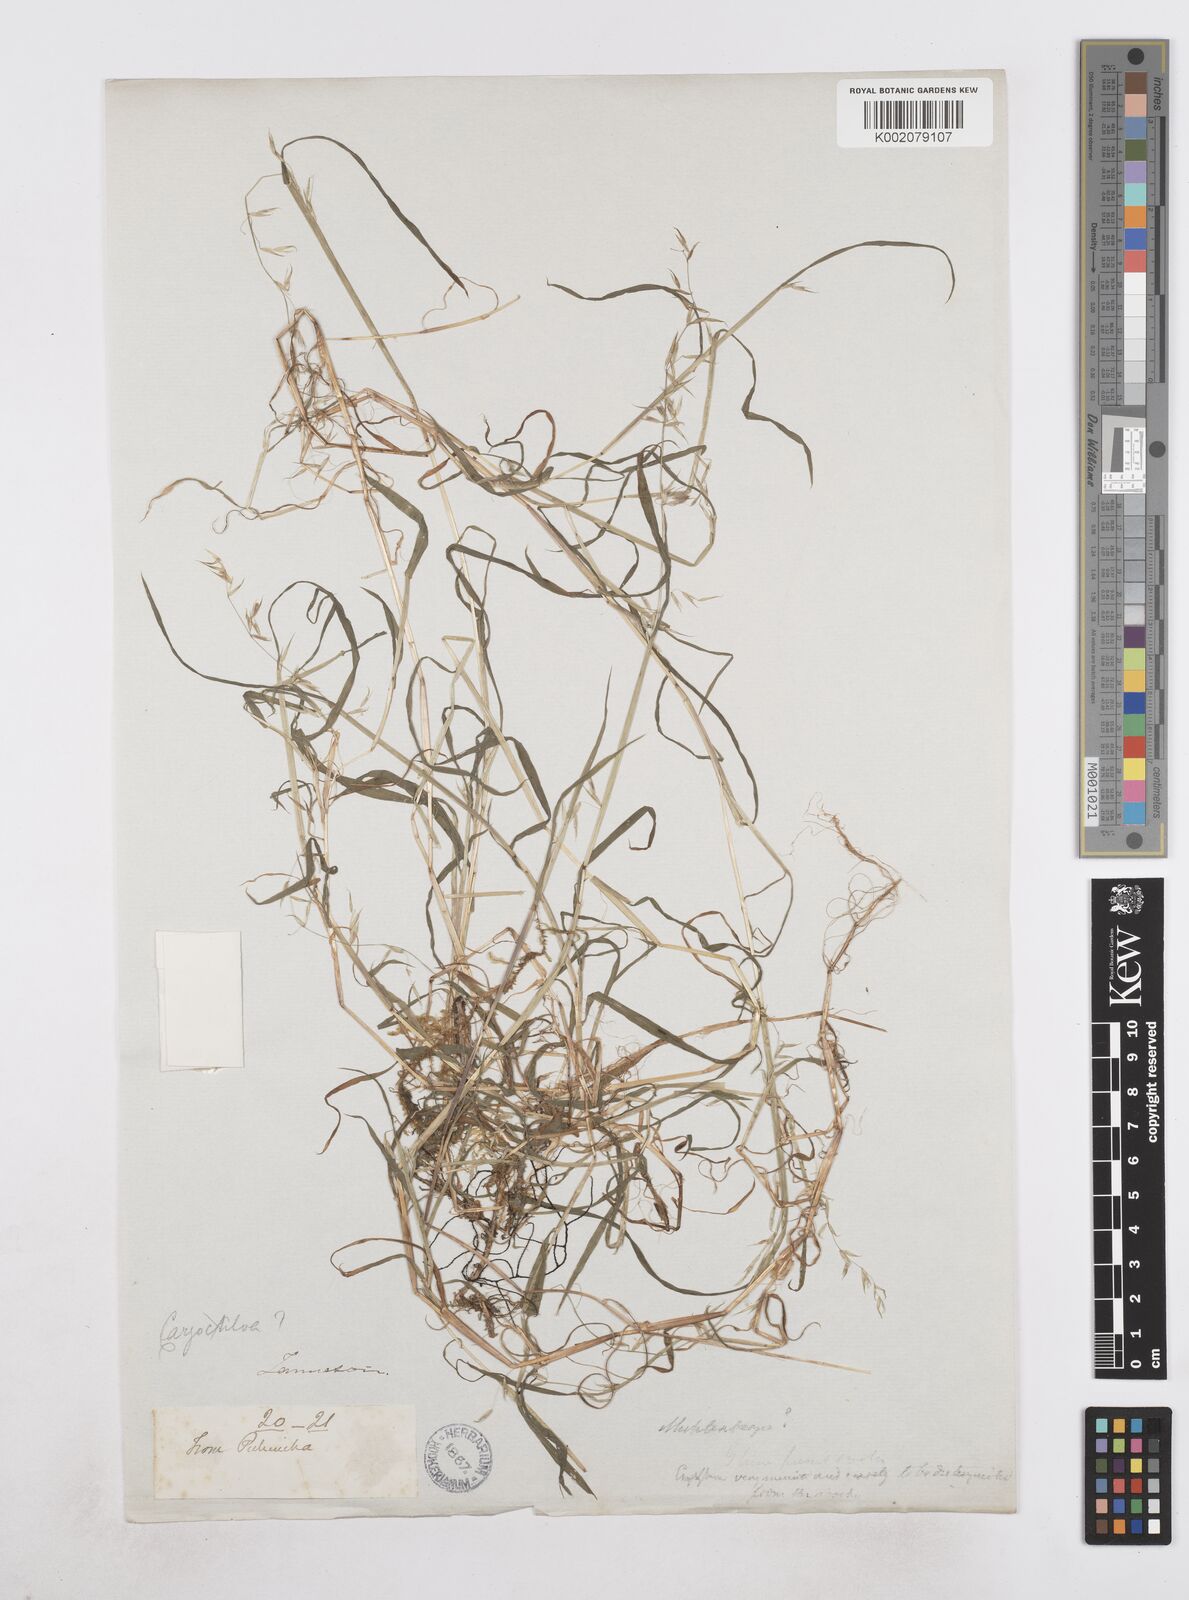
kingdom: Plantae
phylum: Tracheophyta
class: Liliopsida
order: Poales
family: Poaceae
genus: Poa
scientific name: Poa hitchcockiana
